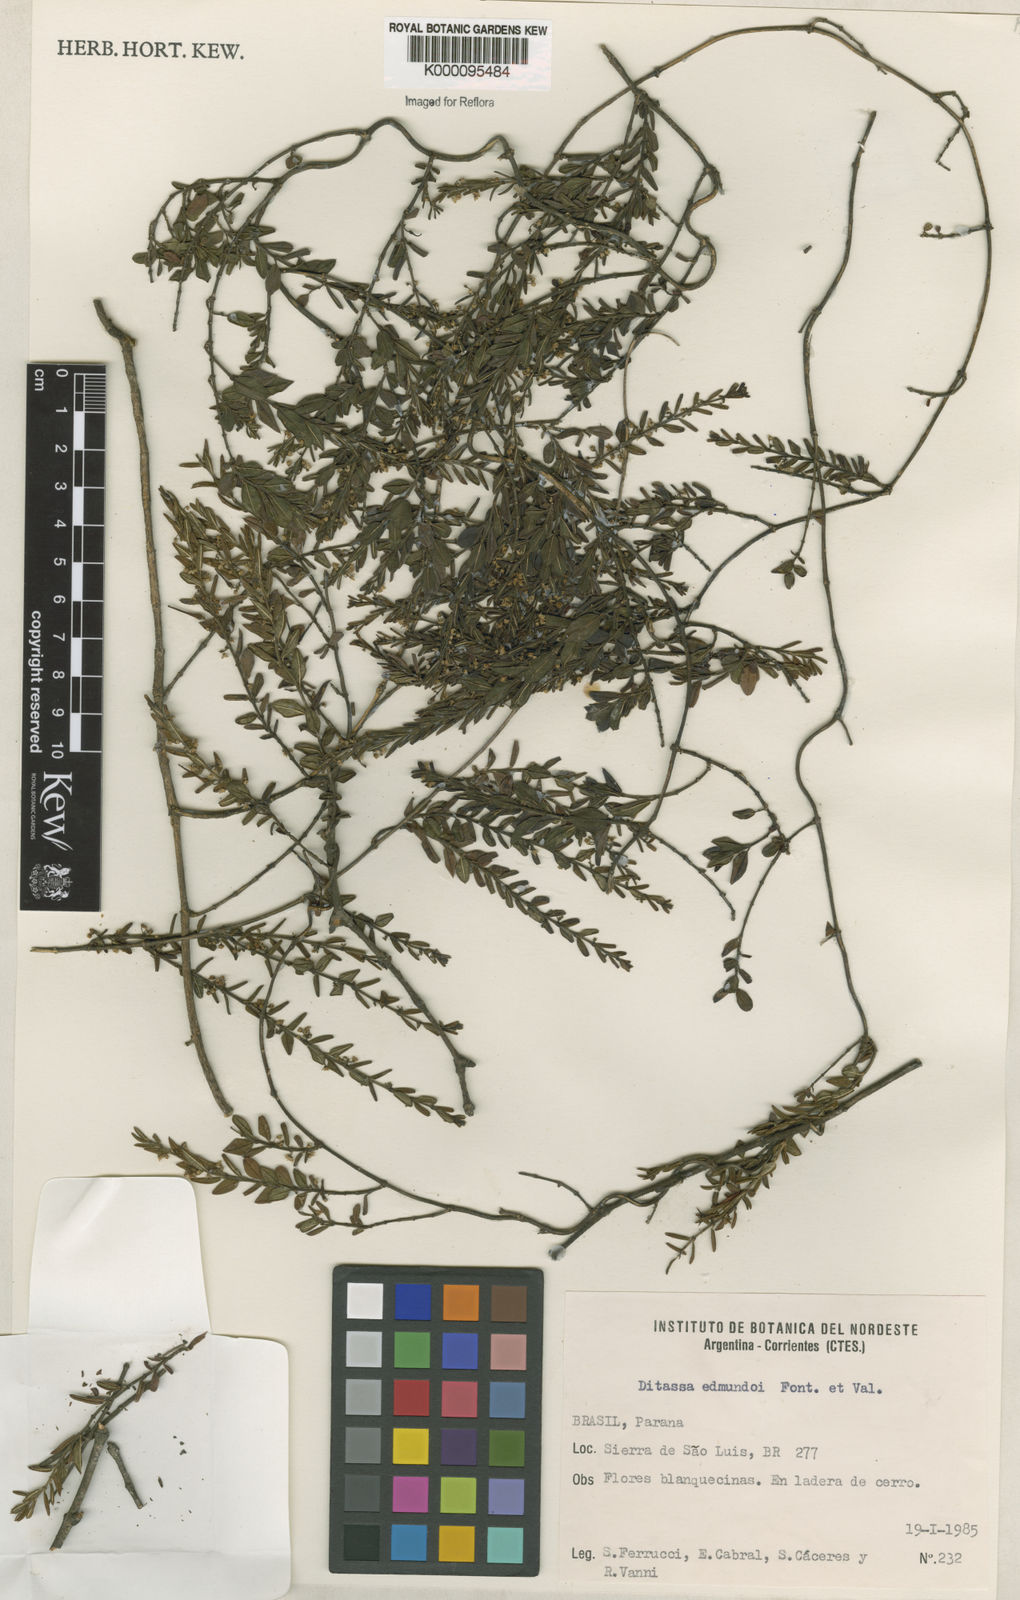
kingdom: Plantae
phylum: Tracheophyta
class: Magnoliopsida
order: Gentianales
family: Apocynaceae
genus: Ditassa
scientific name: Ditassa edmundoi
